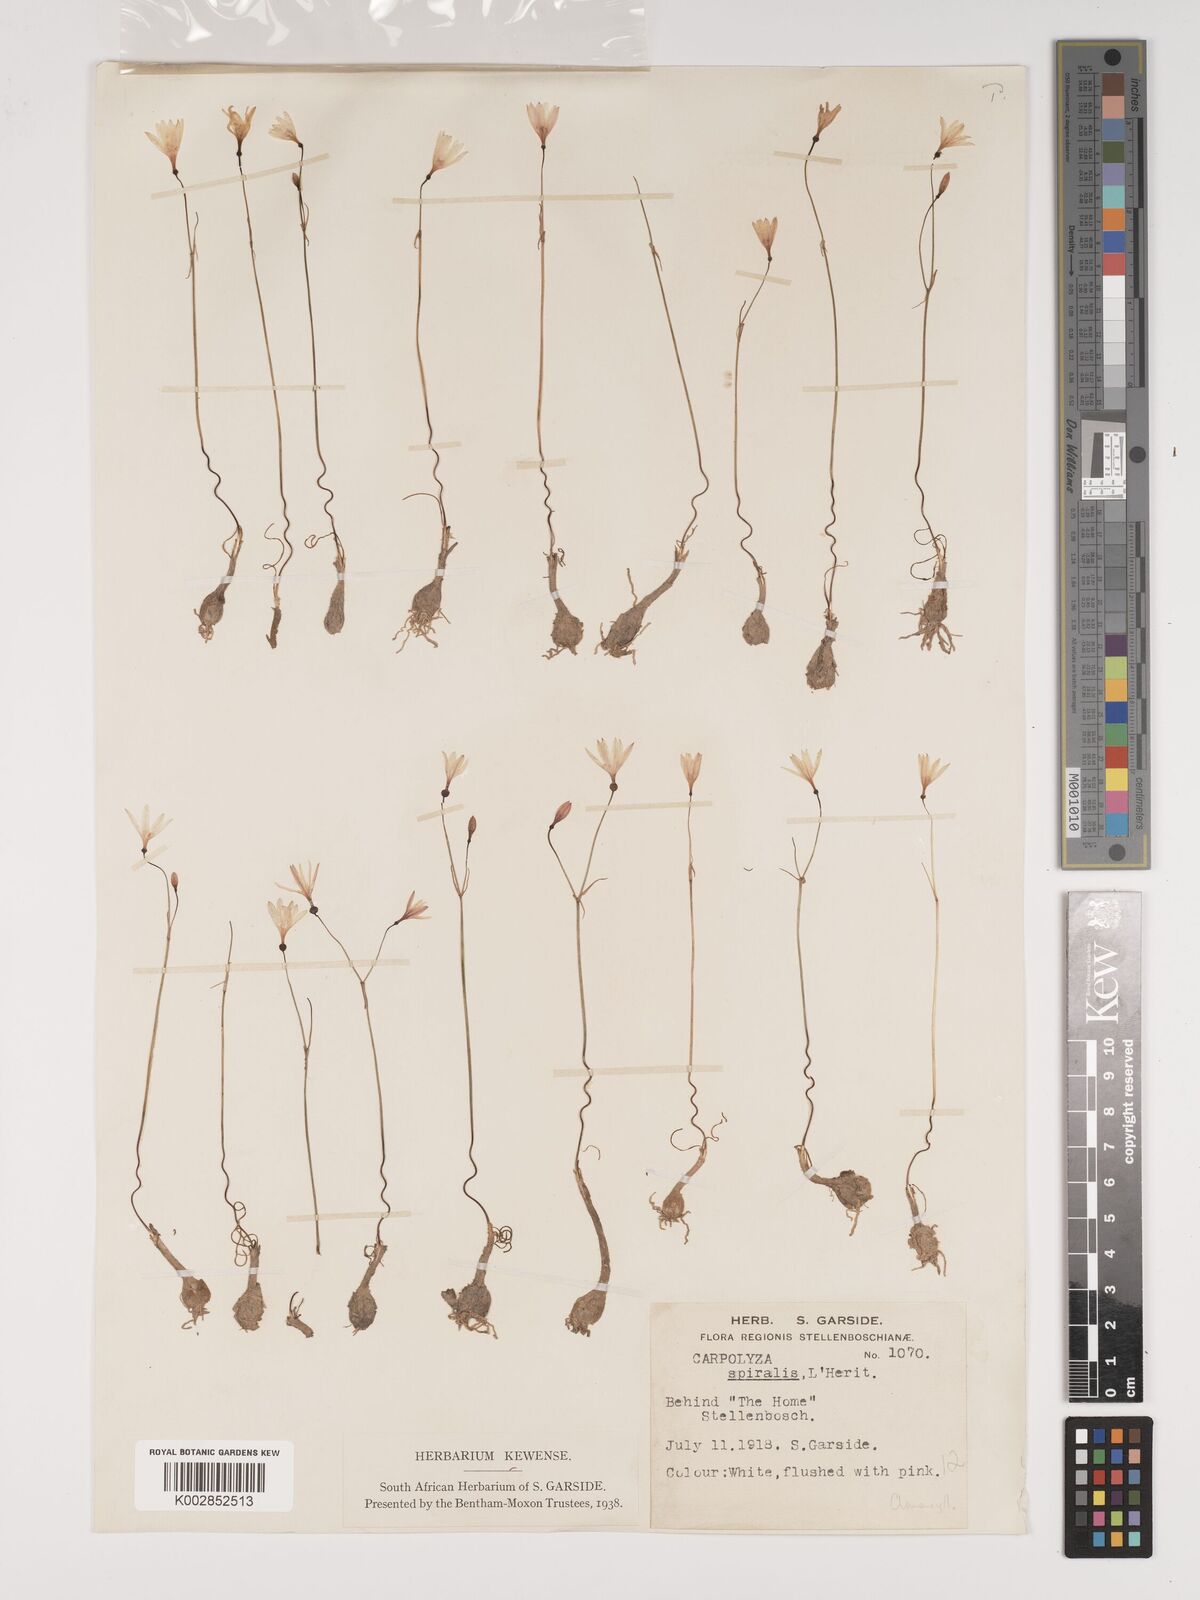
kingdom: Plantae
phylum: Tracheophyta
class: Liliopsida
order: Asparagales
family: Amaryllidaceae
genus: Strumaria
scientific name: Strumaria spiralis
